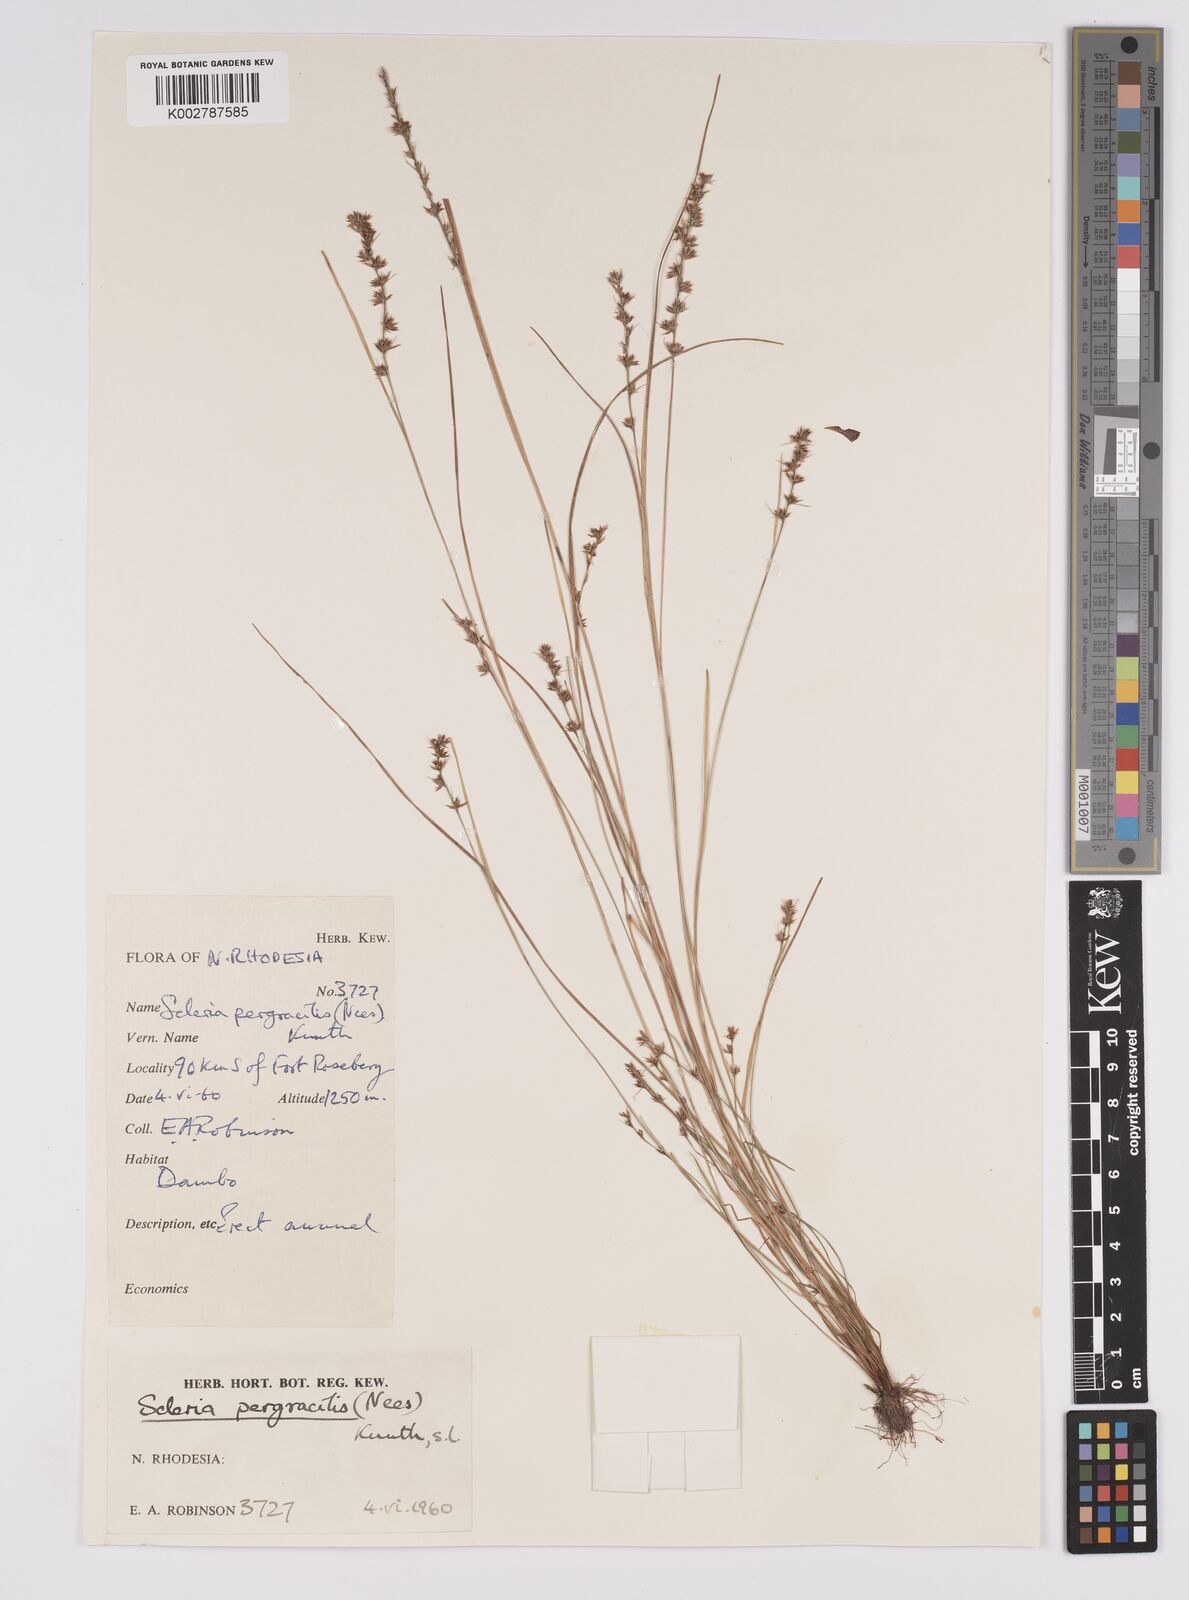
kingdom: Plantae
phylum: Tracheophyta
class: Liliopsida
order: Poales
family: Cyperaceae
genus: Scleria
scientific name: Scleria pergracilis
